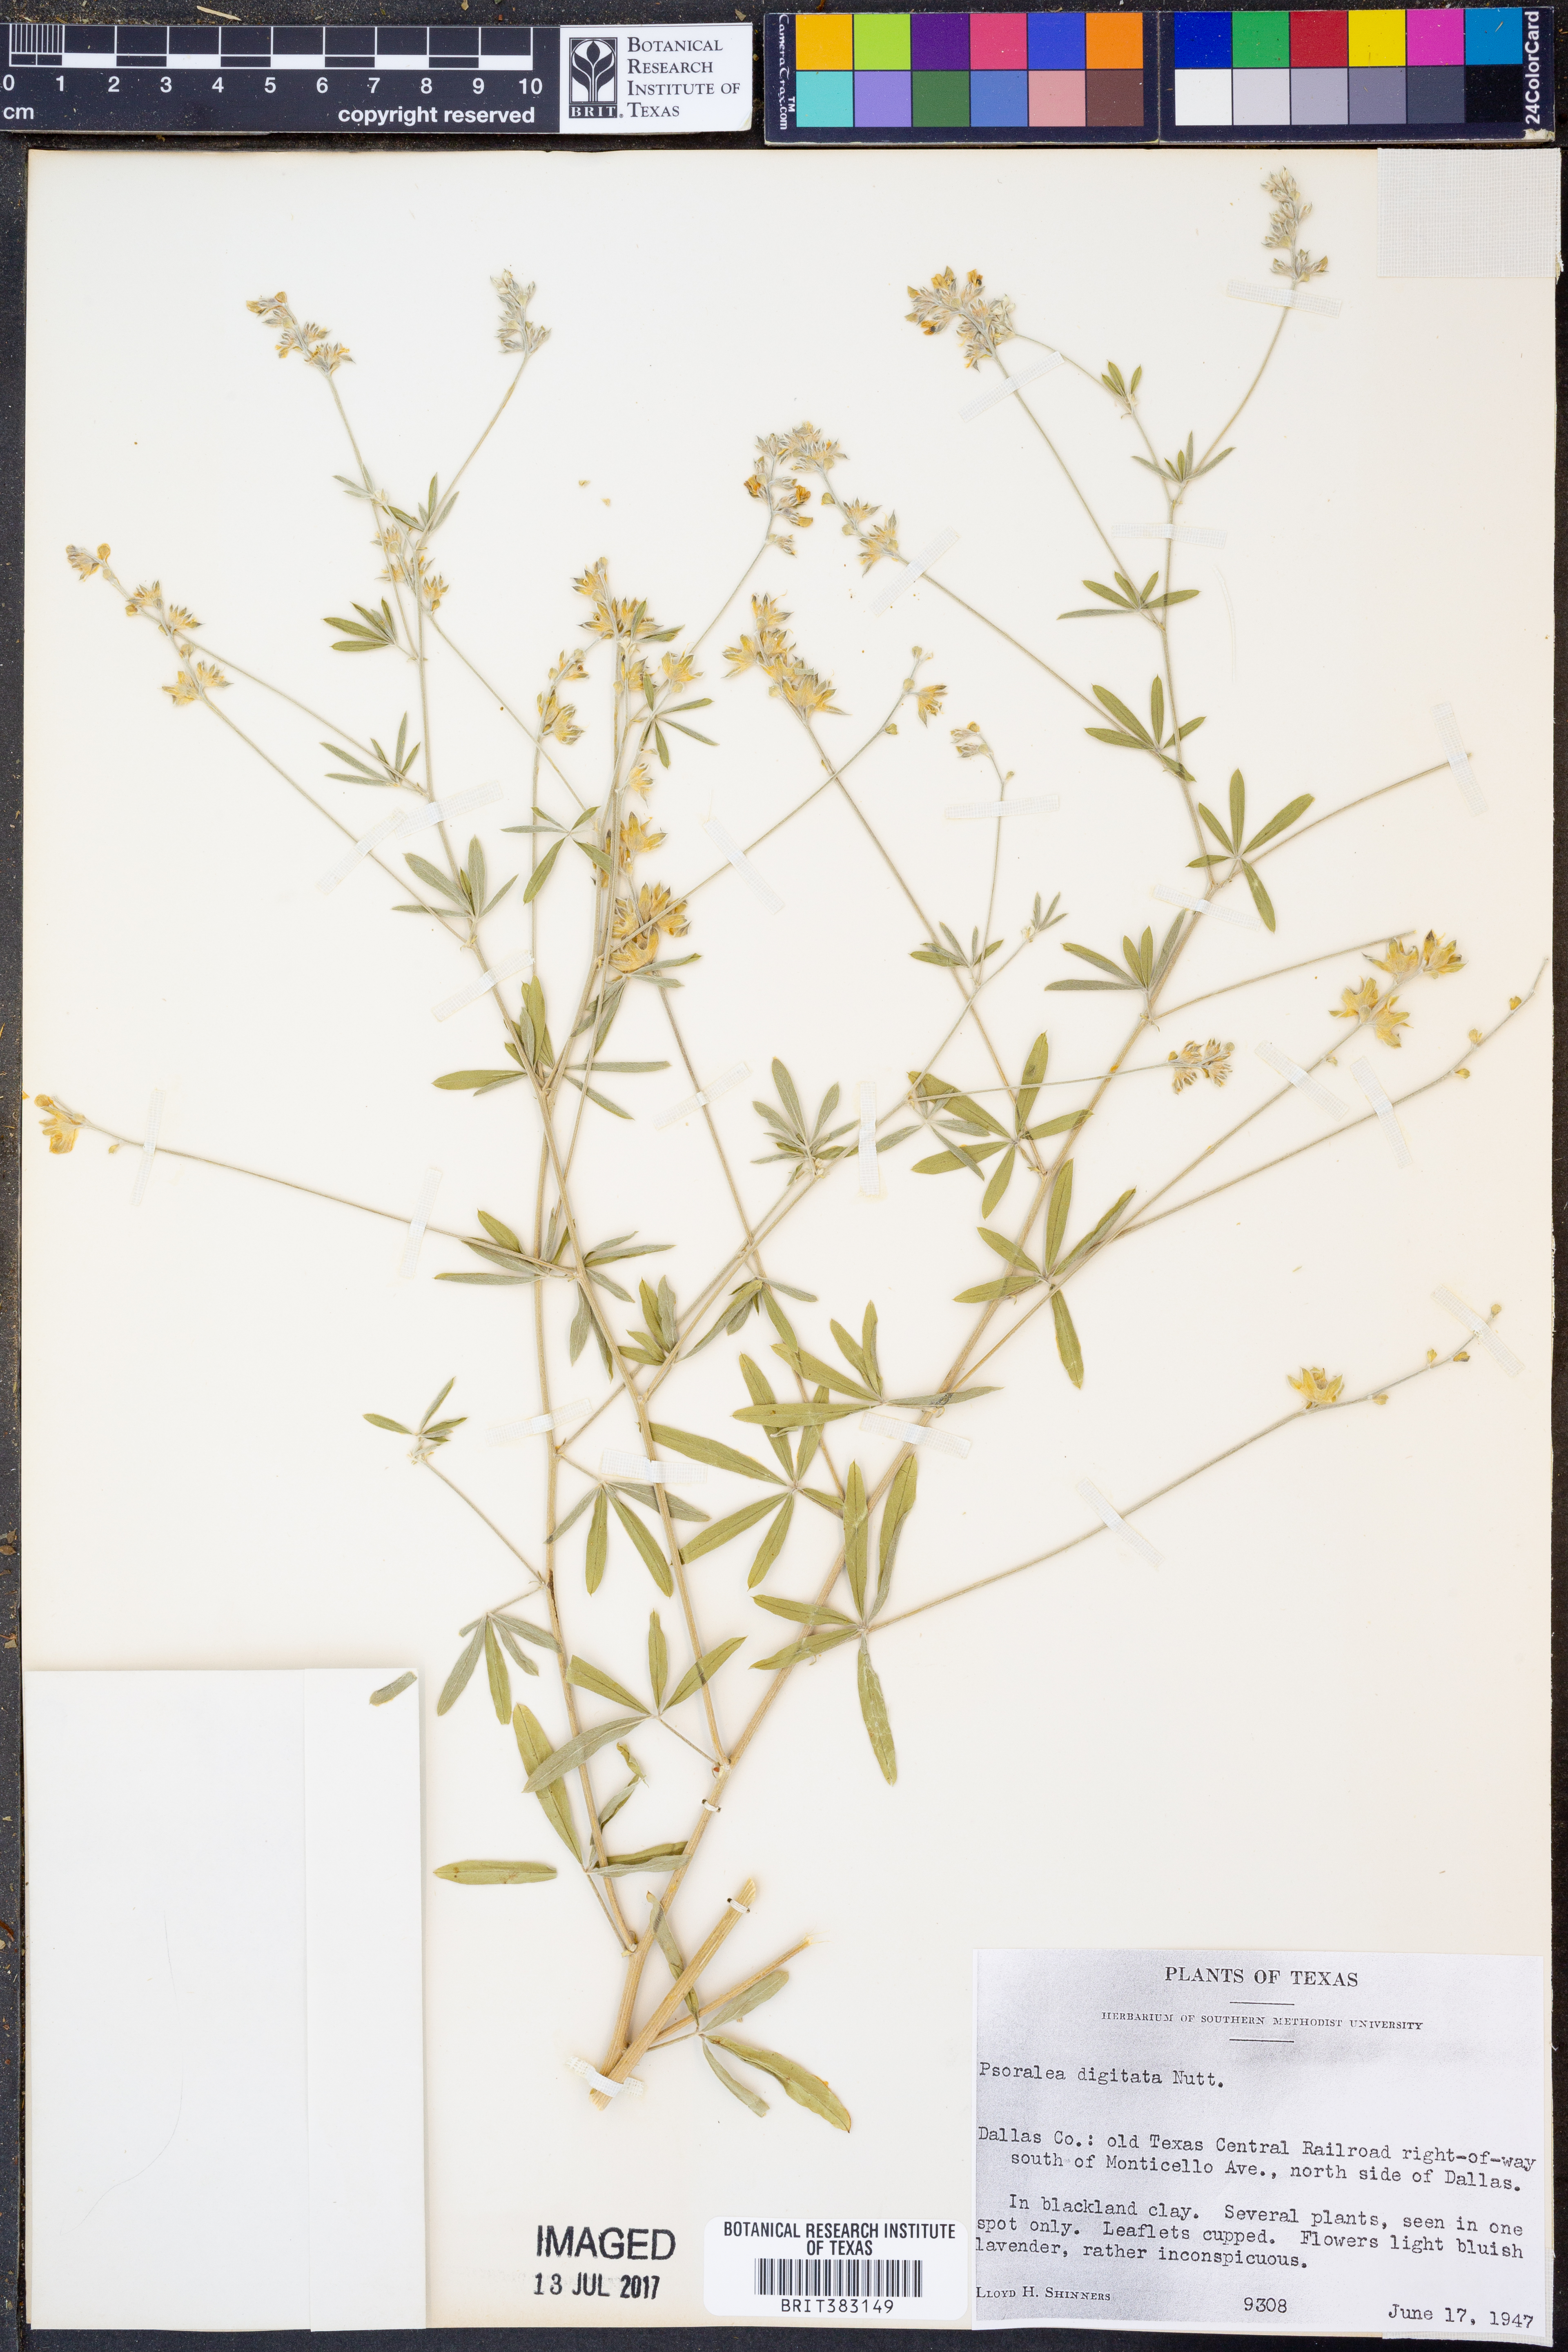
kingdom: Plantae
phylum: Tracheophyta
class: Magnoliopsida
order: Fabales
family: Fabaceae
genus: Pediomelum
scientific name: Pediomelum digitatum
